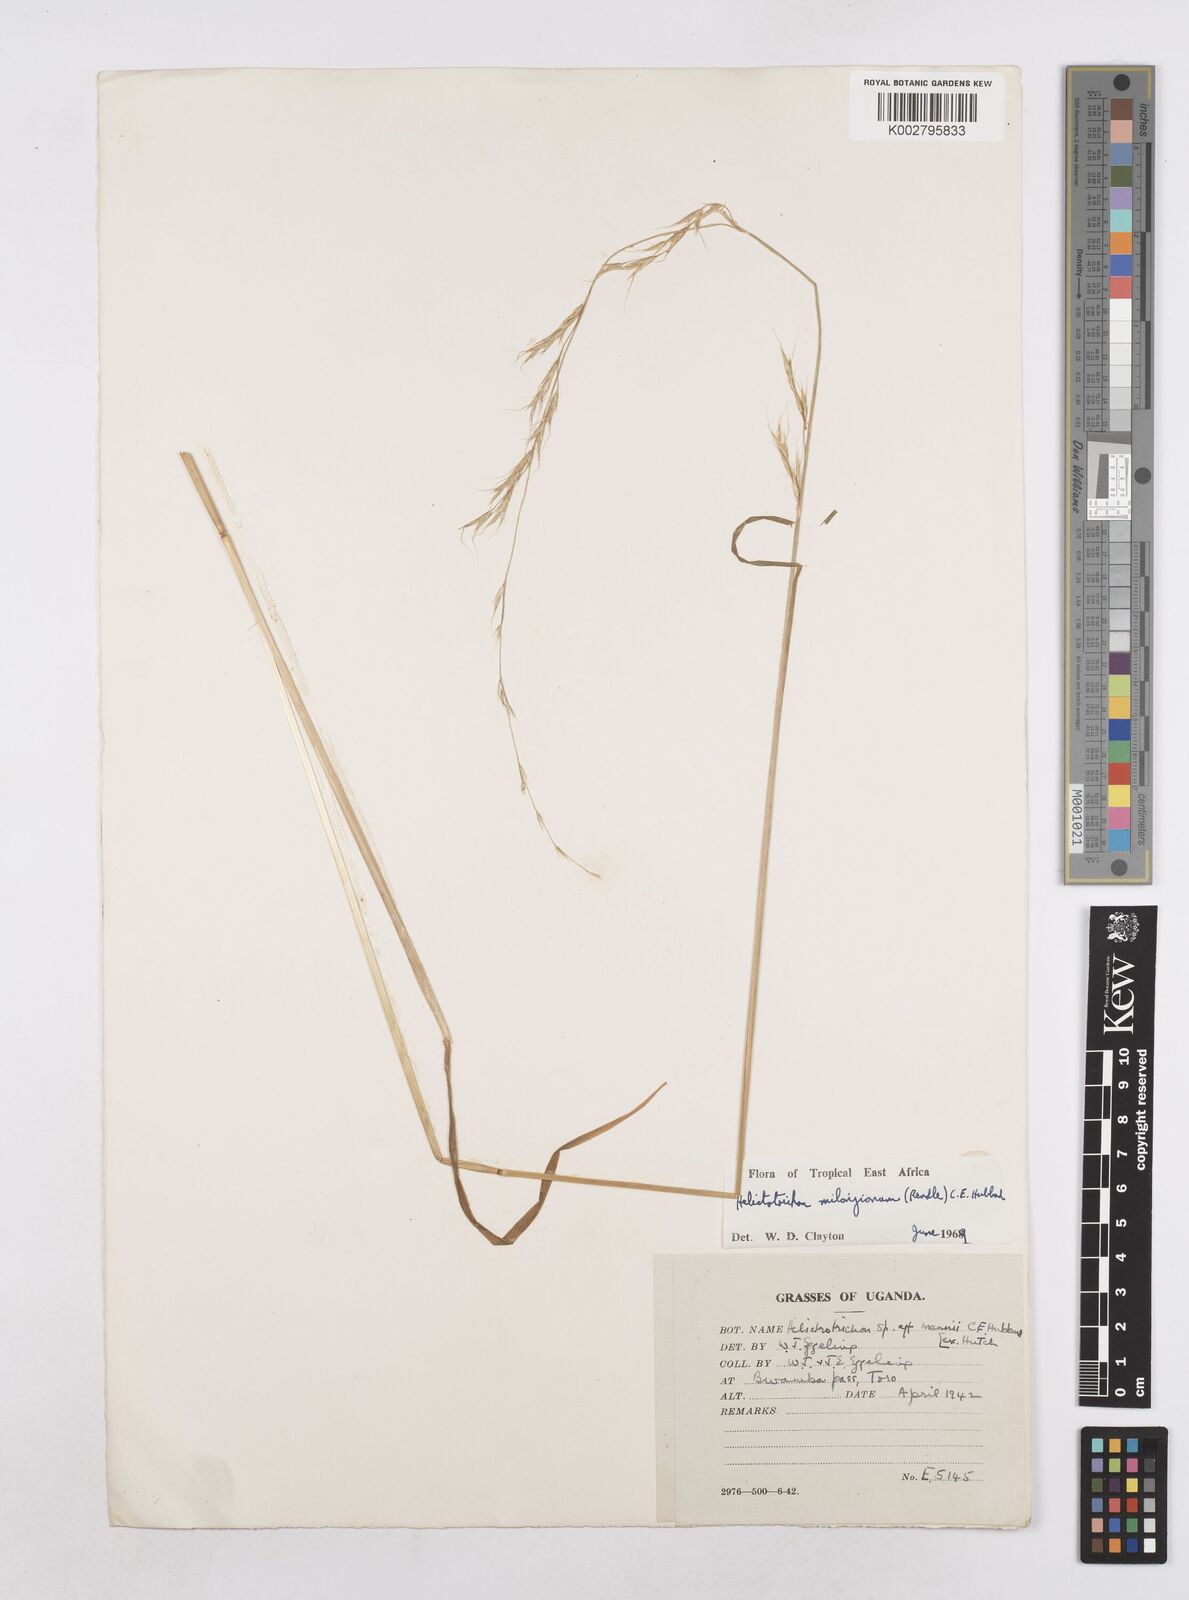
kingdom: Plantae
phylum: Tracheophyta
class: Liliopsida
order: Poales
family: Poaceae
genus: Trisetopsis
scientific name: Trisetopsis milanjiana
